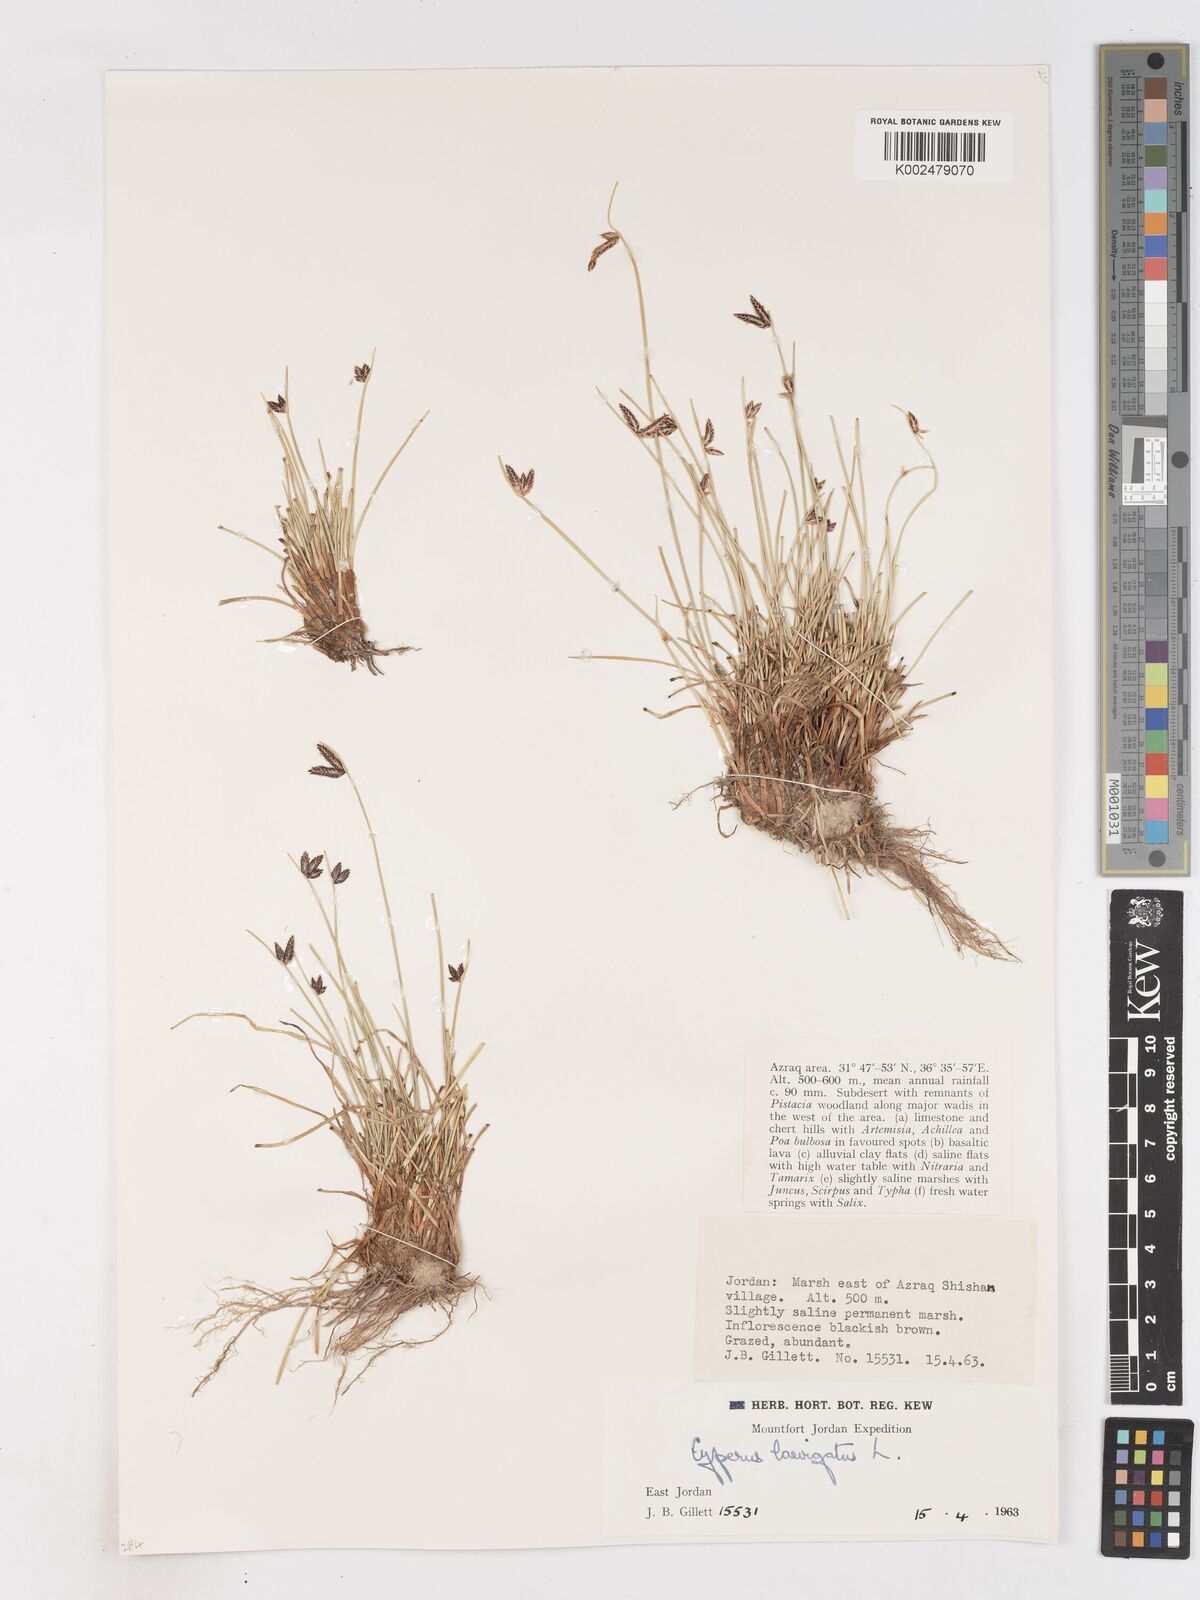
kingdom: Plantae
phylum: Tracheophyta
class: Liliopsida
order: Poales
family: Cyperaceae
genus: Cyperus
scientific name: Cyperus laevigatus
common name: Smooth flat sedge
